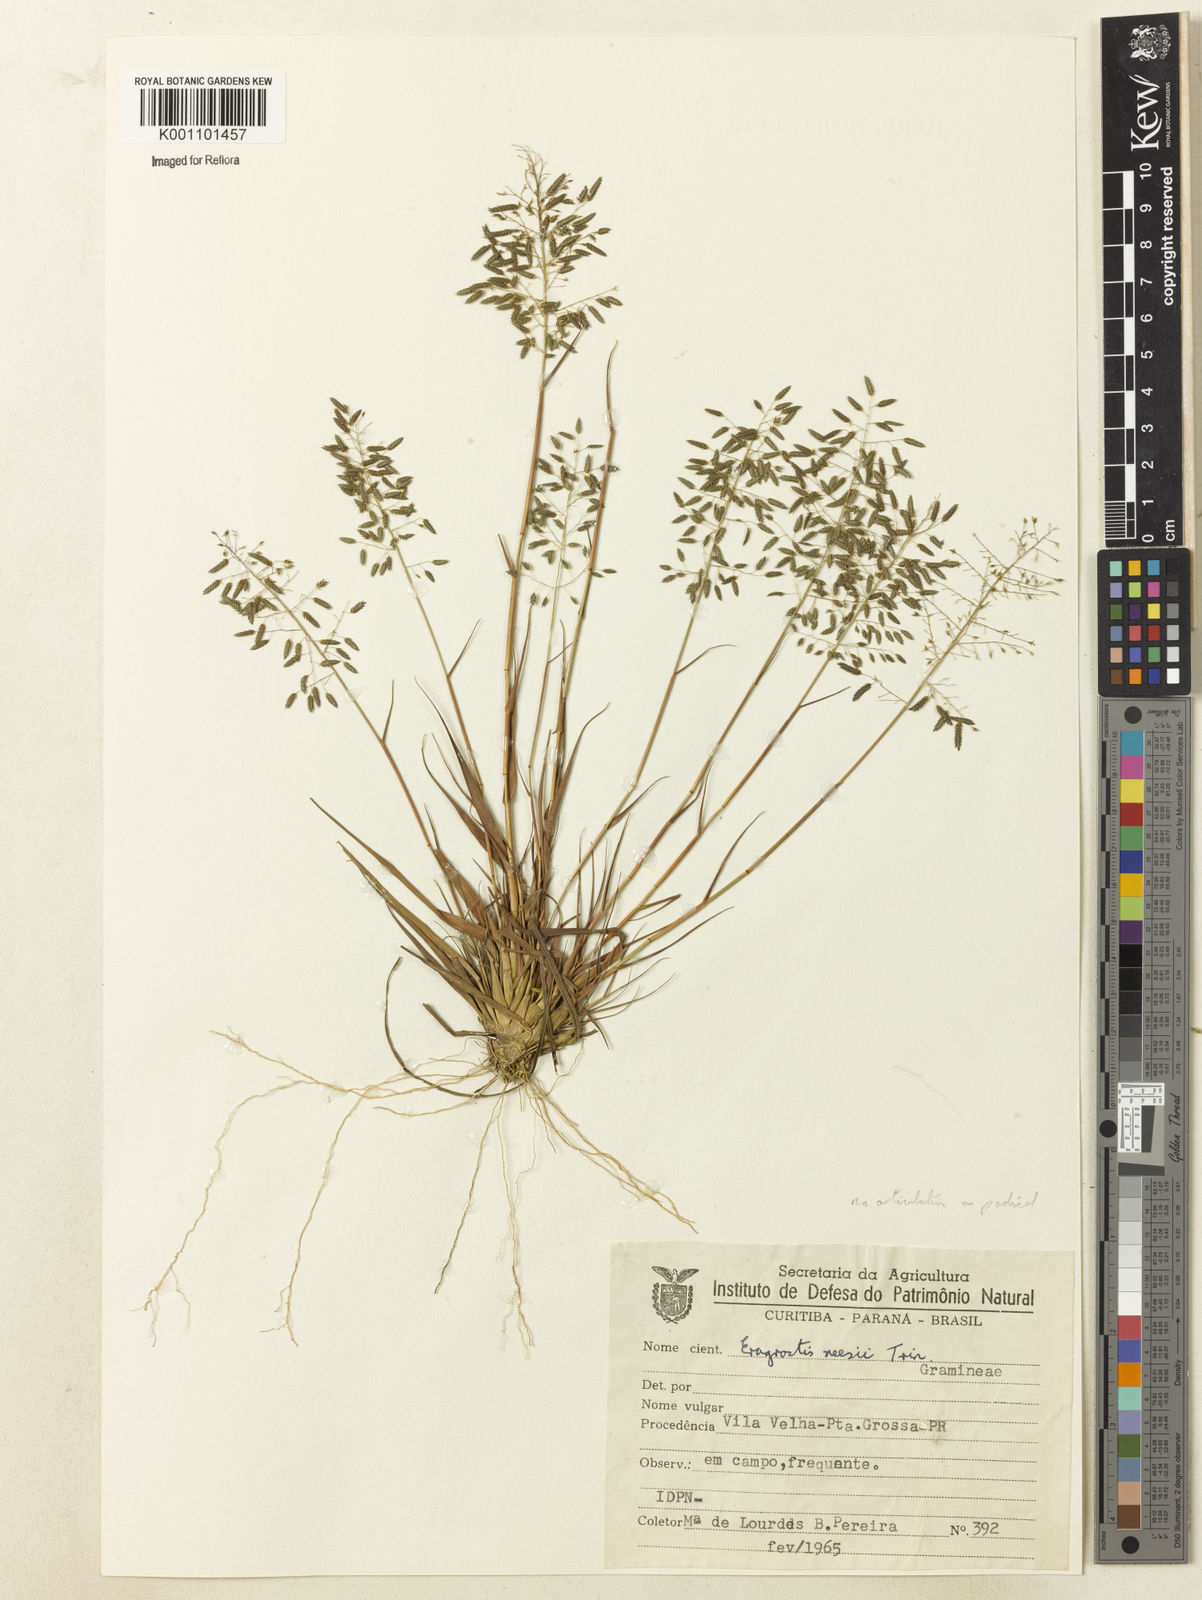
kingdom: Plantae
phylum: Tracheophyta
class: Liliopsida
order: Poales
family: Poaceae
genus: Eragrostis
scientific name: Eragrostis neesii
